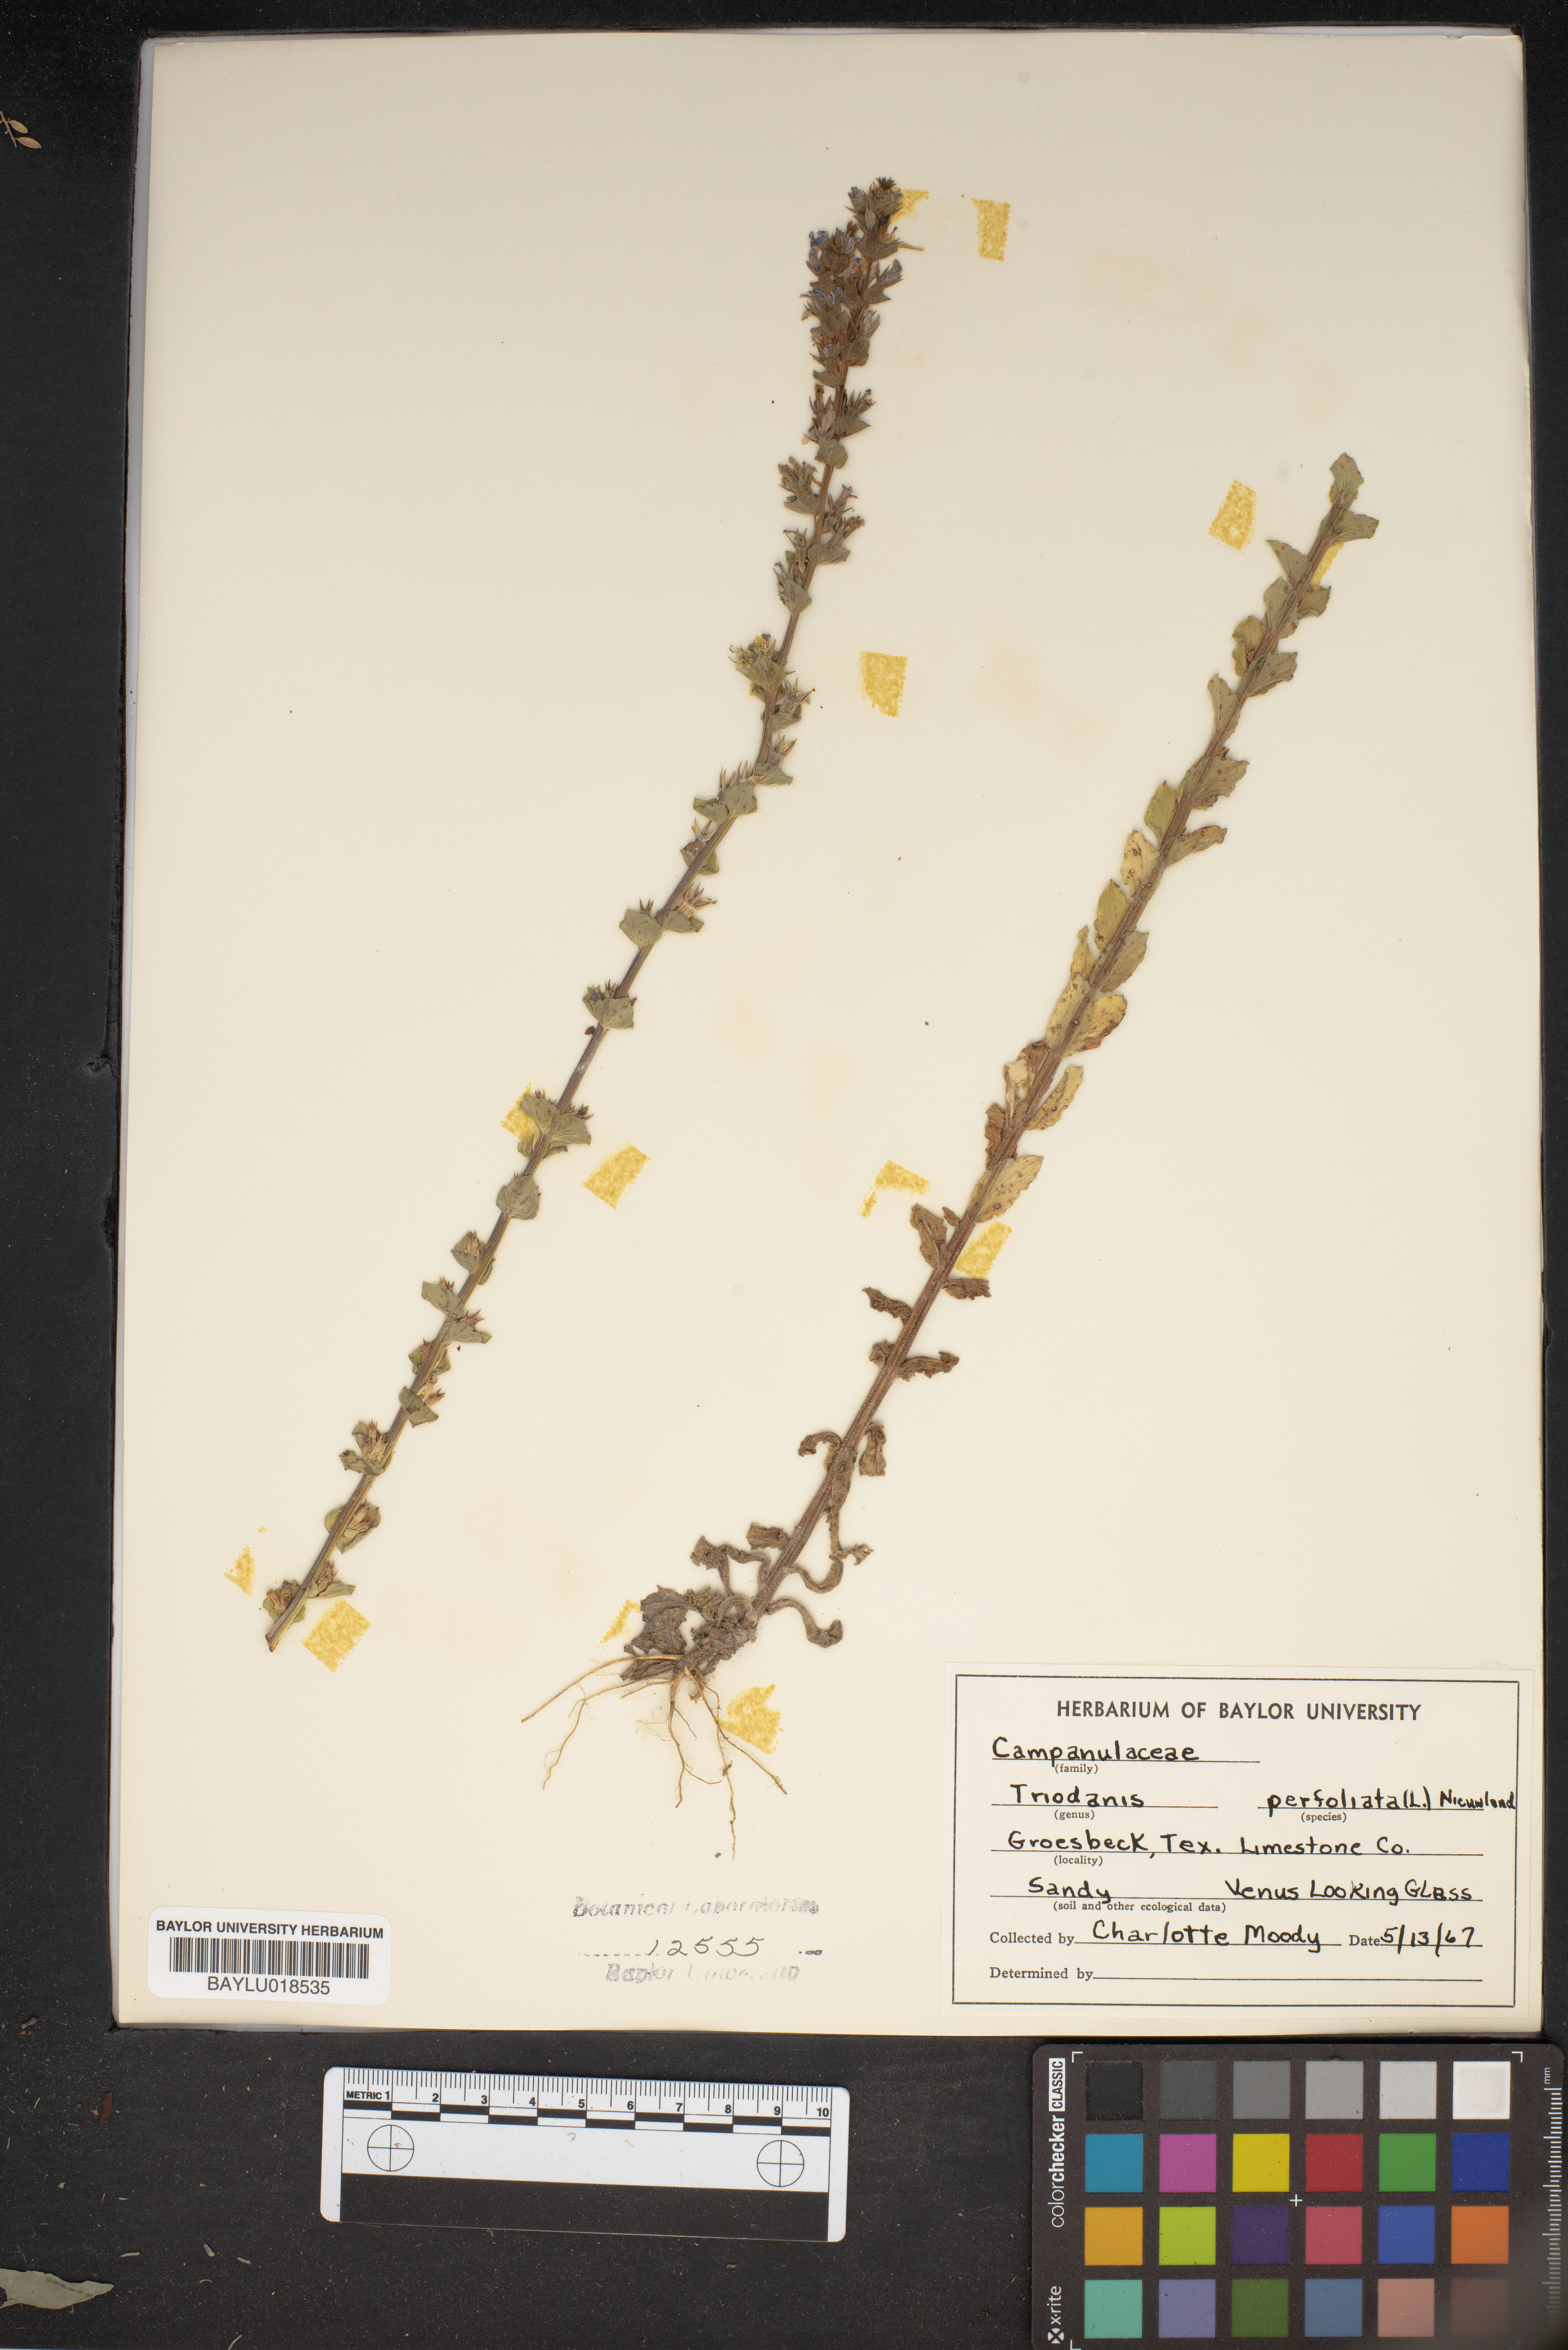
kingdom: Plantae
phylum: Tracheophyta
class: Magnoliopsida
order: Asterales
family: Campanulaceae
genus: Triodanis
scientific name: Triodanis perfoliata
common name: Clasping venus' looking-glass
